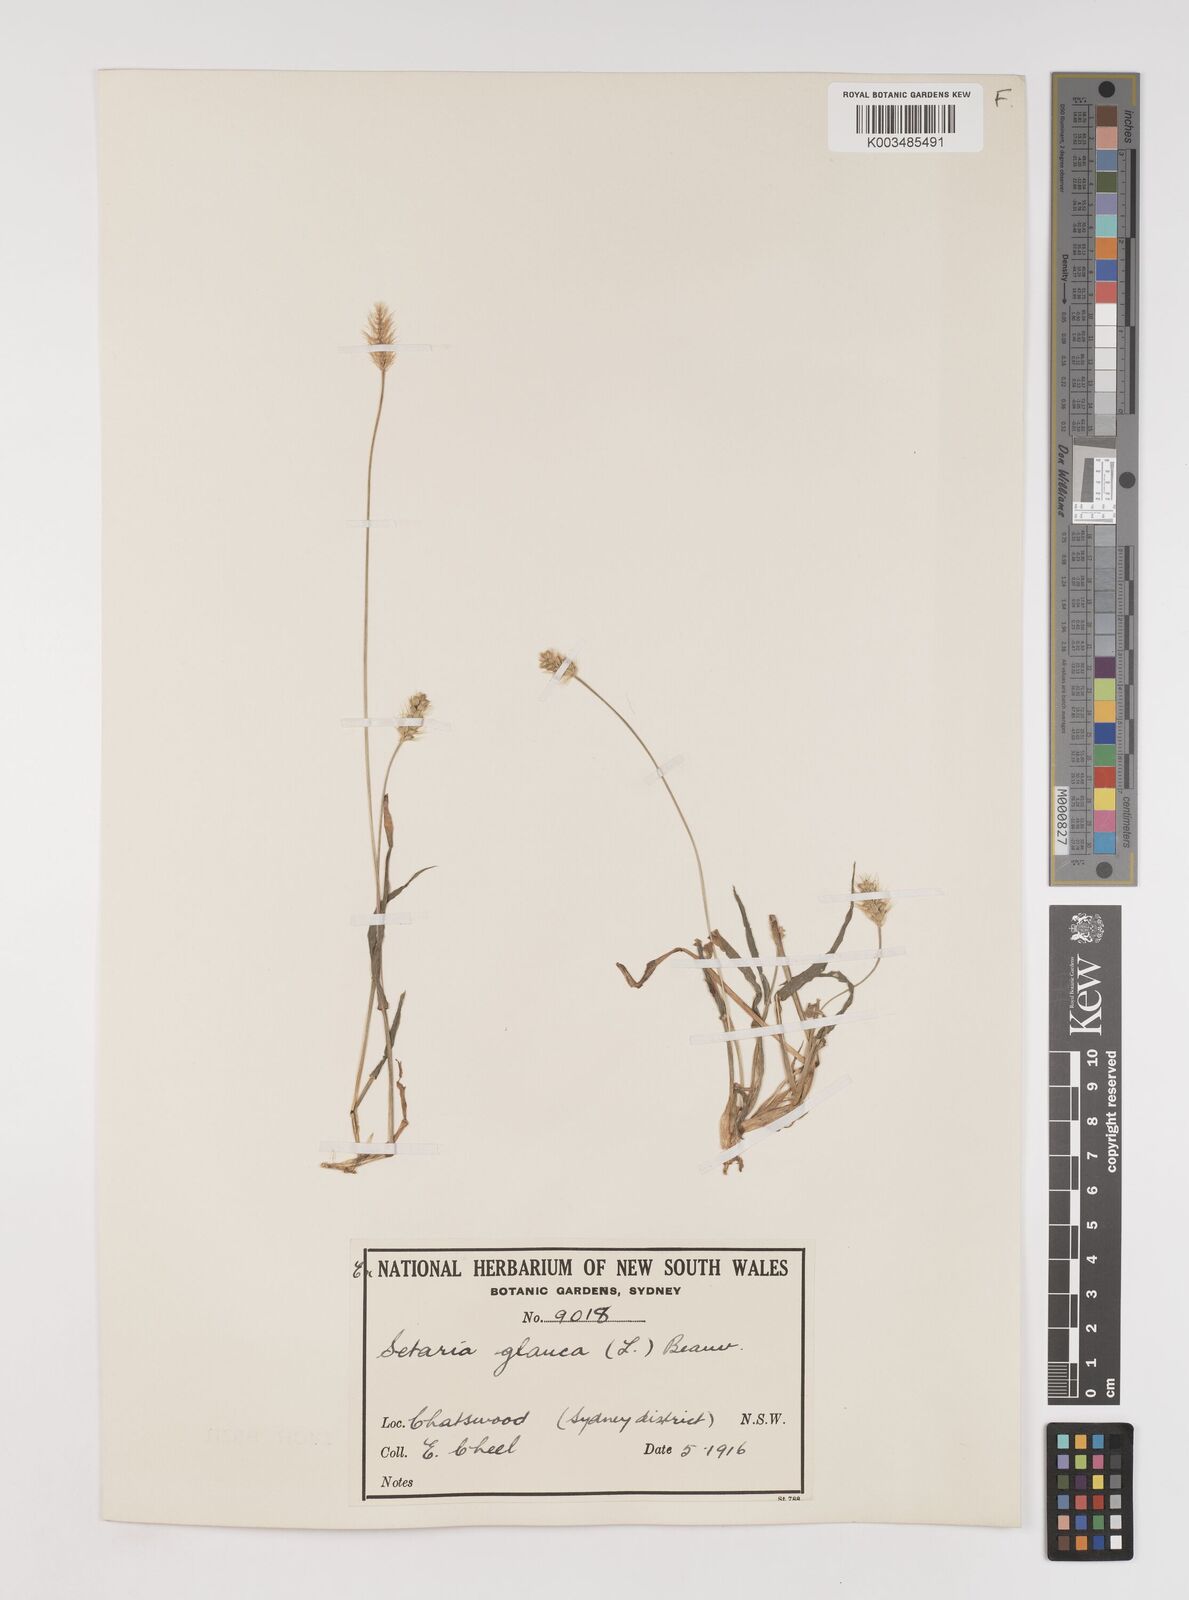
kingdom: Plantae
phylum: Tracheophyta
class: Liliopsida
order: Poales
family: Poaceae
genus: Setaria
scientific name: Setaria pumila
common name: Yellow bristle-grass
